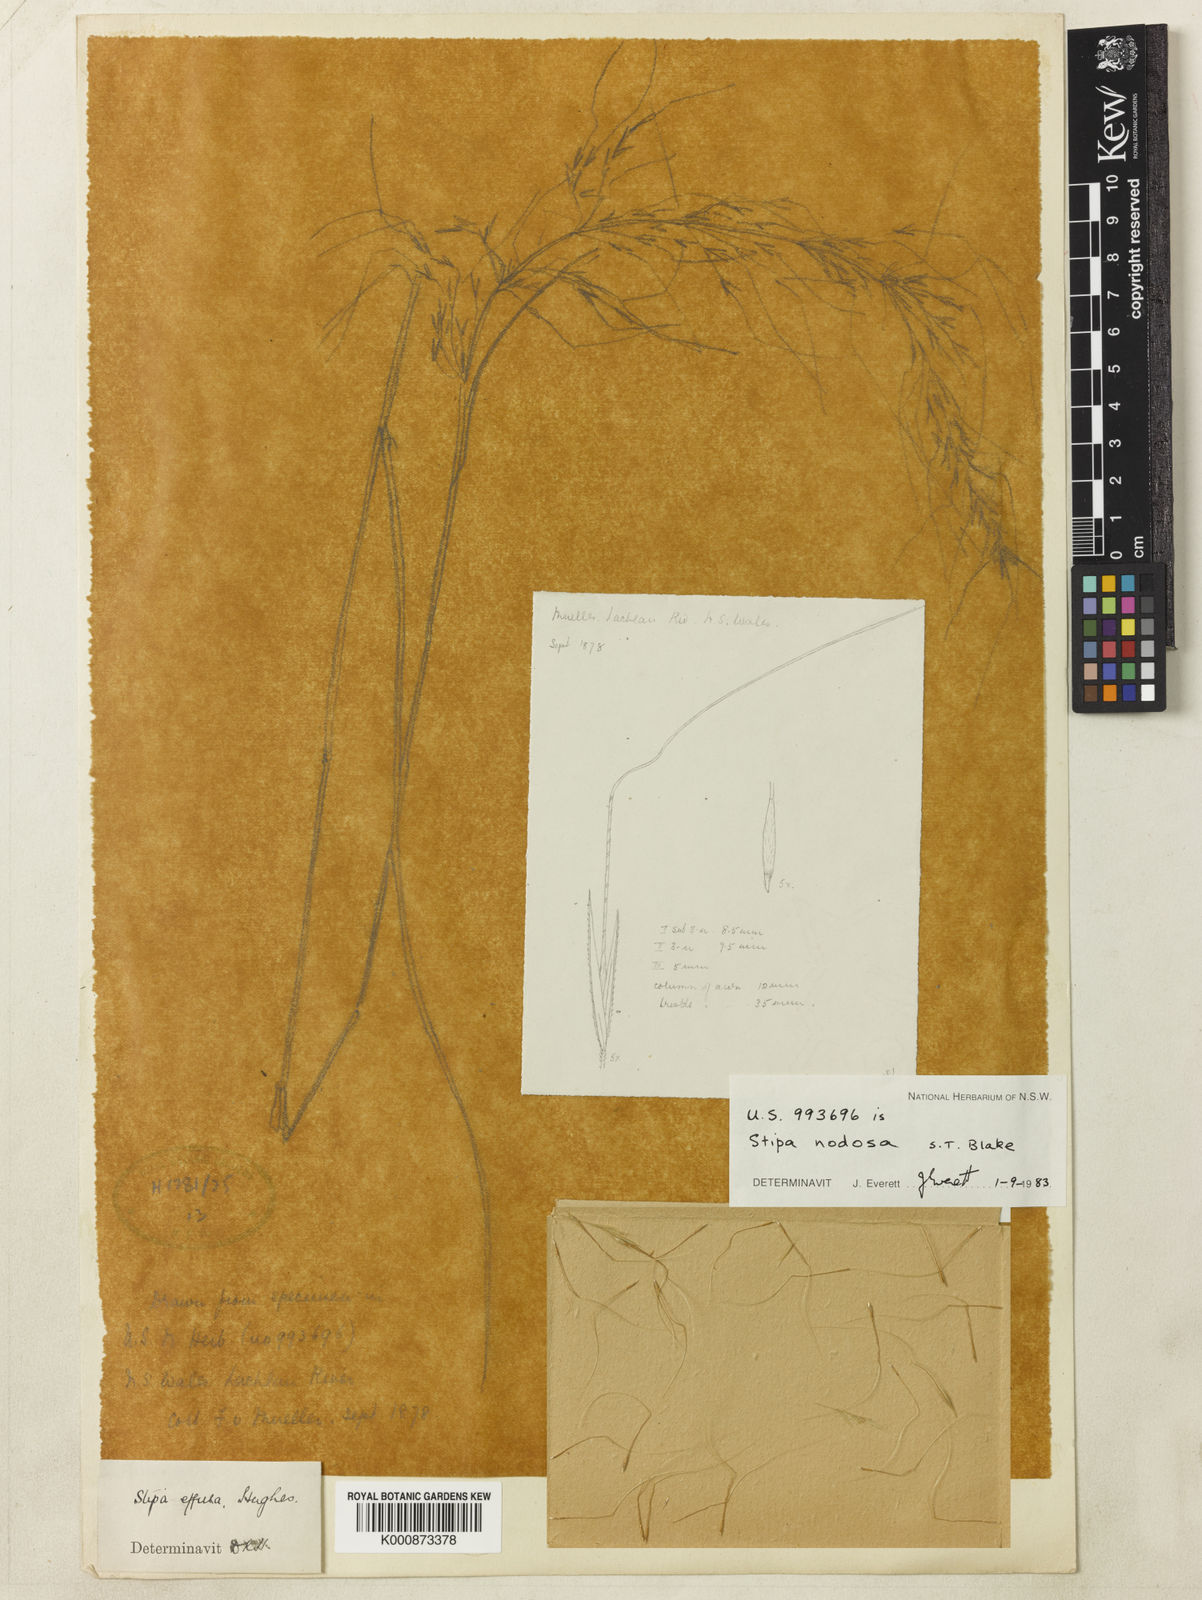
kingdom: Plantae
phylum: Tracheophyta
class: Liliopsida
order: Poales
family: Poaceae
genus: Austrostipa
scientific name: Austrostipa nodosa
